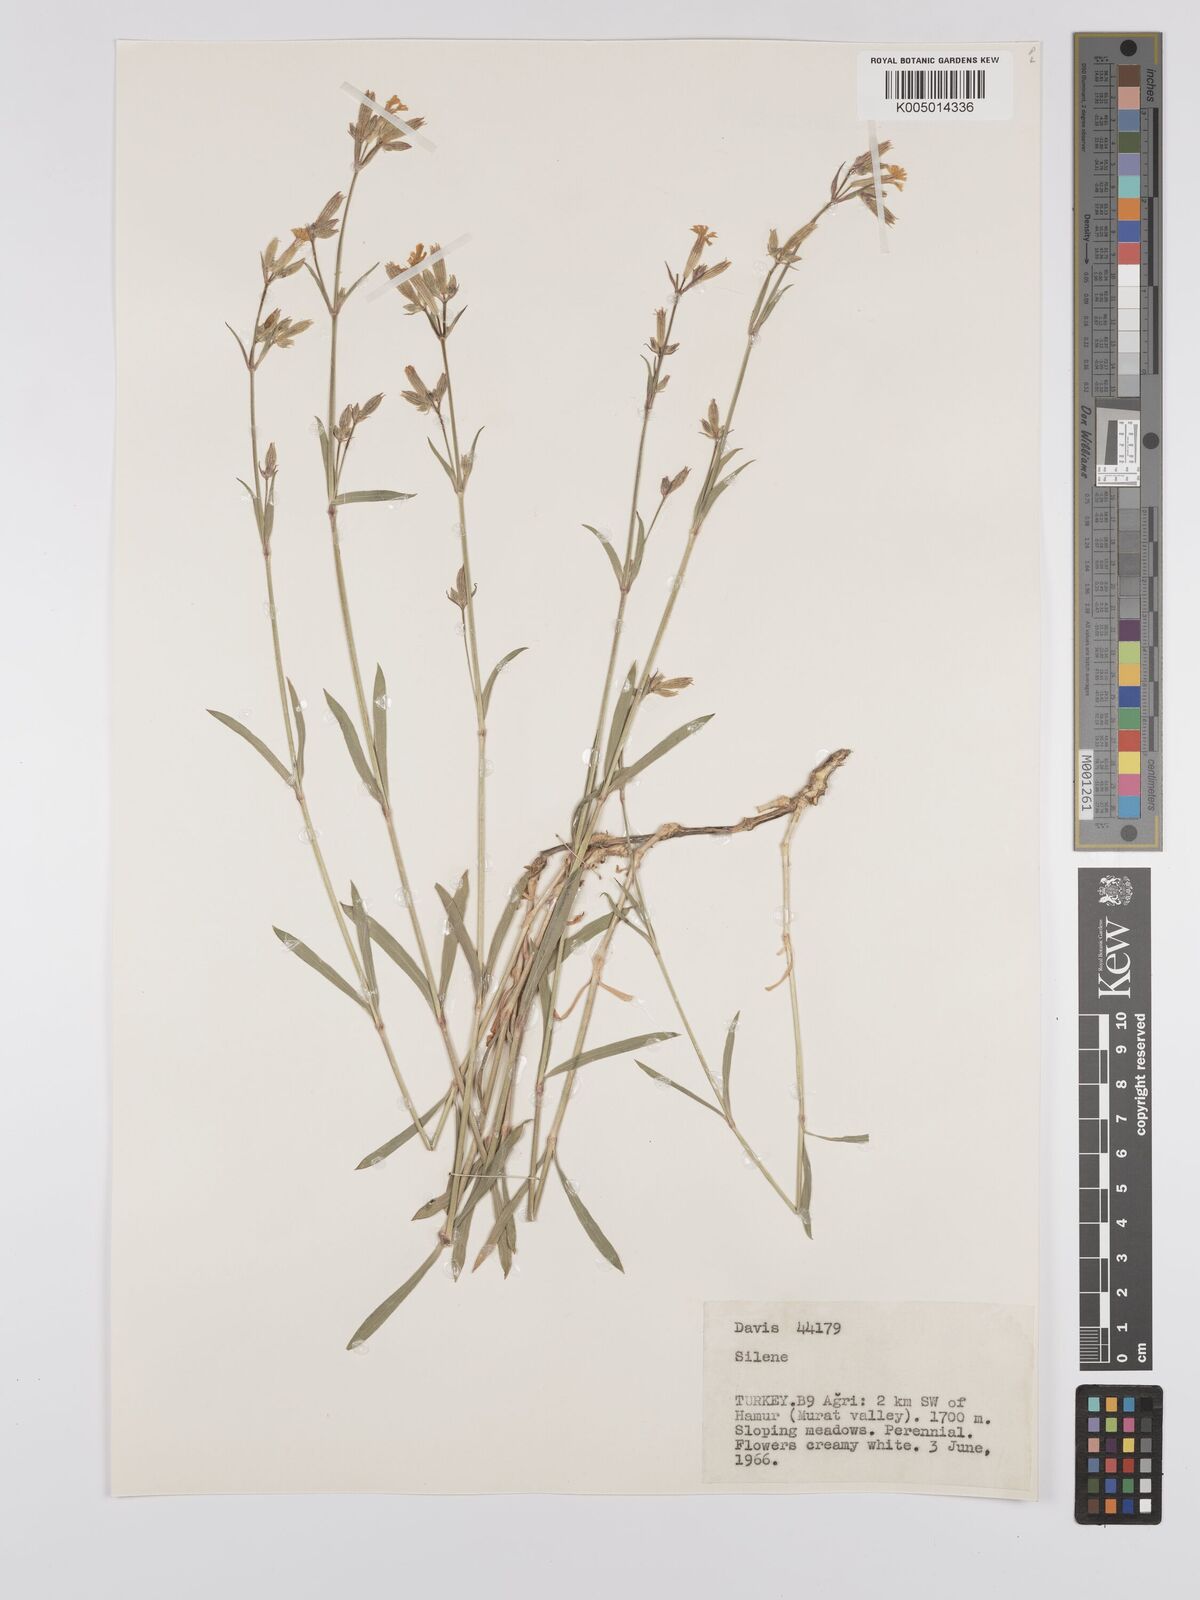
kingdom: Plantae
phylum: Tracheophyta
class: Magnoliopsida
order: Caryophyllales
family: Caryophyllaceae
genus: Silene
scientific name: Silene
